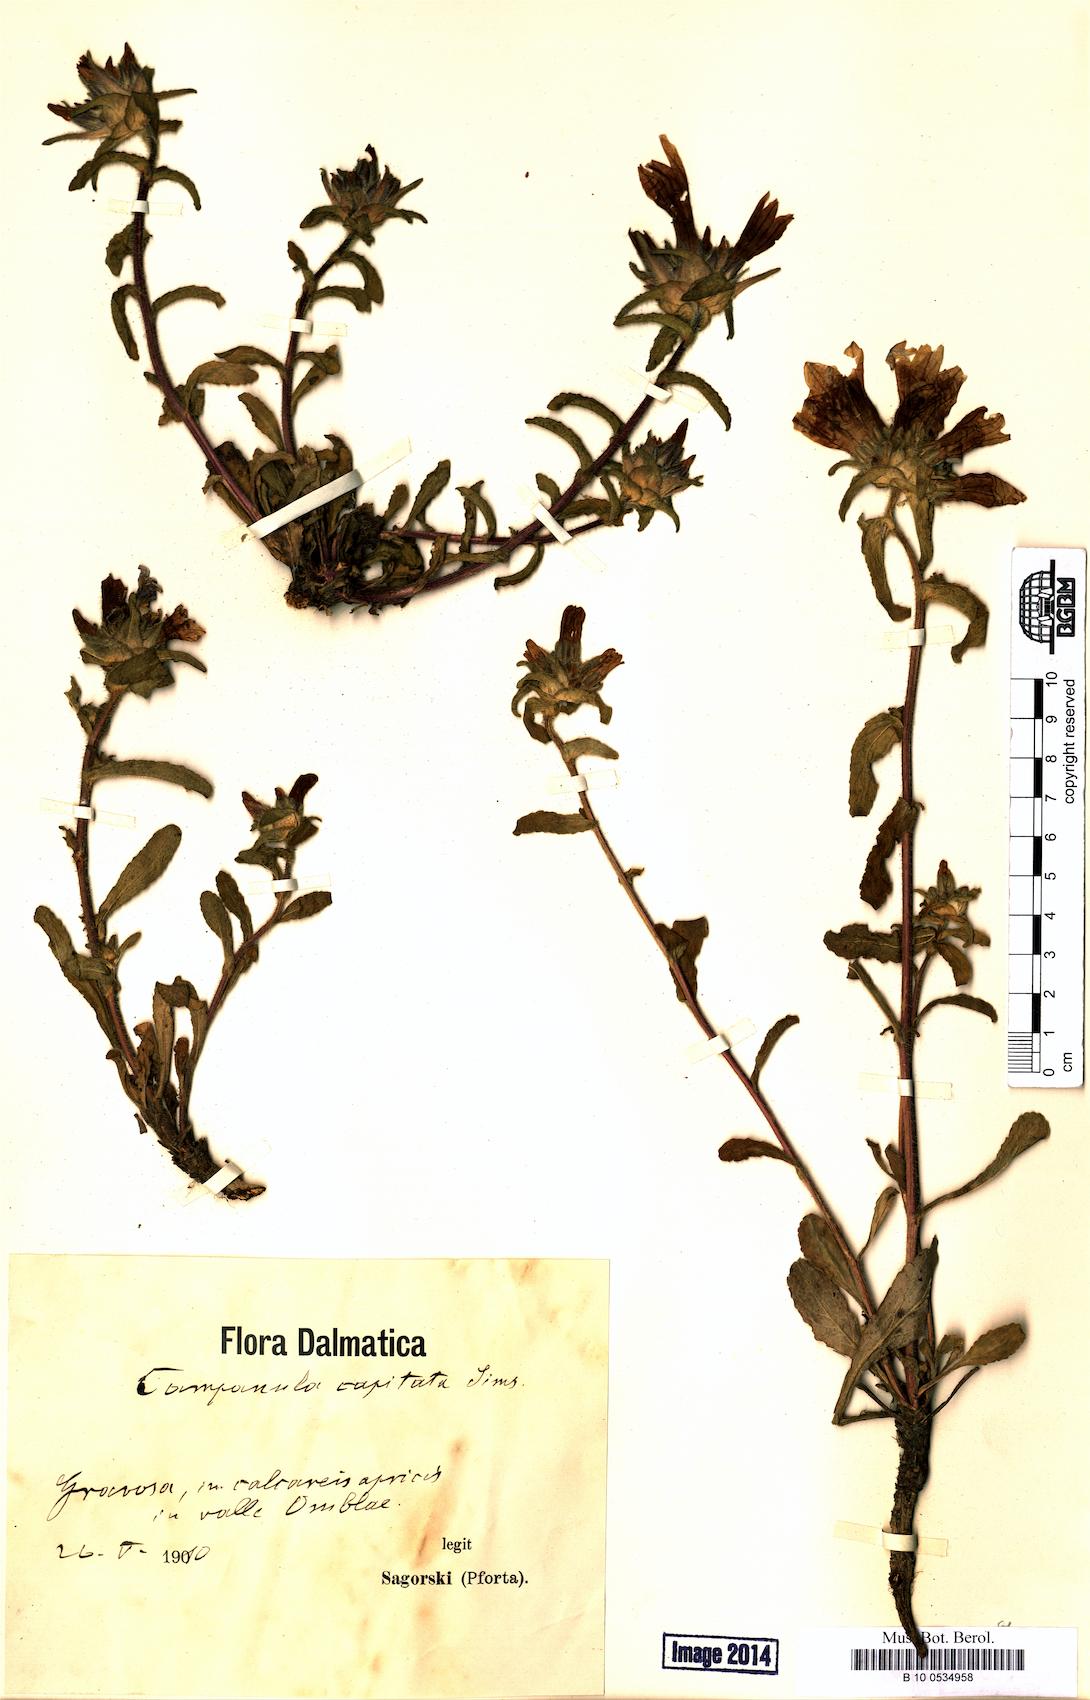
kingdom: Plantae
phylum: Tracheophyta
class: Magnoliopsida
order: Asterales
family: Campanulaceae
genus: Campanula
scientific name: Campanula lingulata
